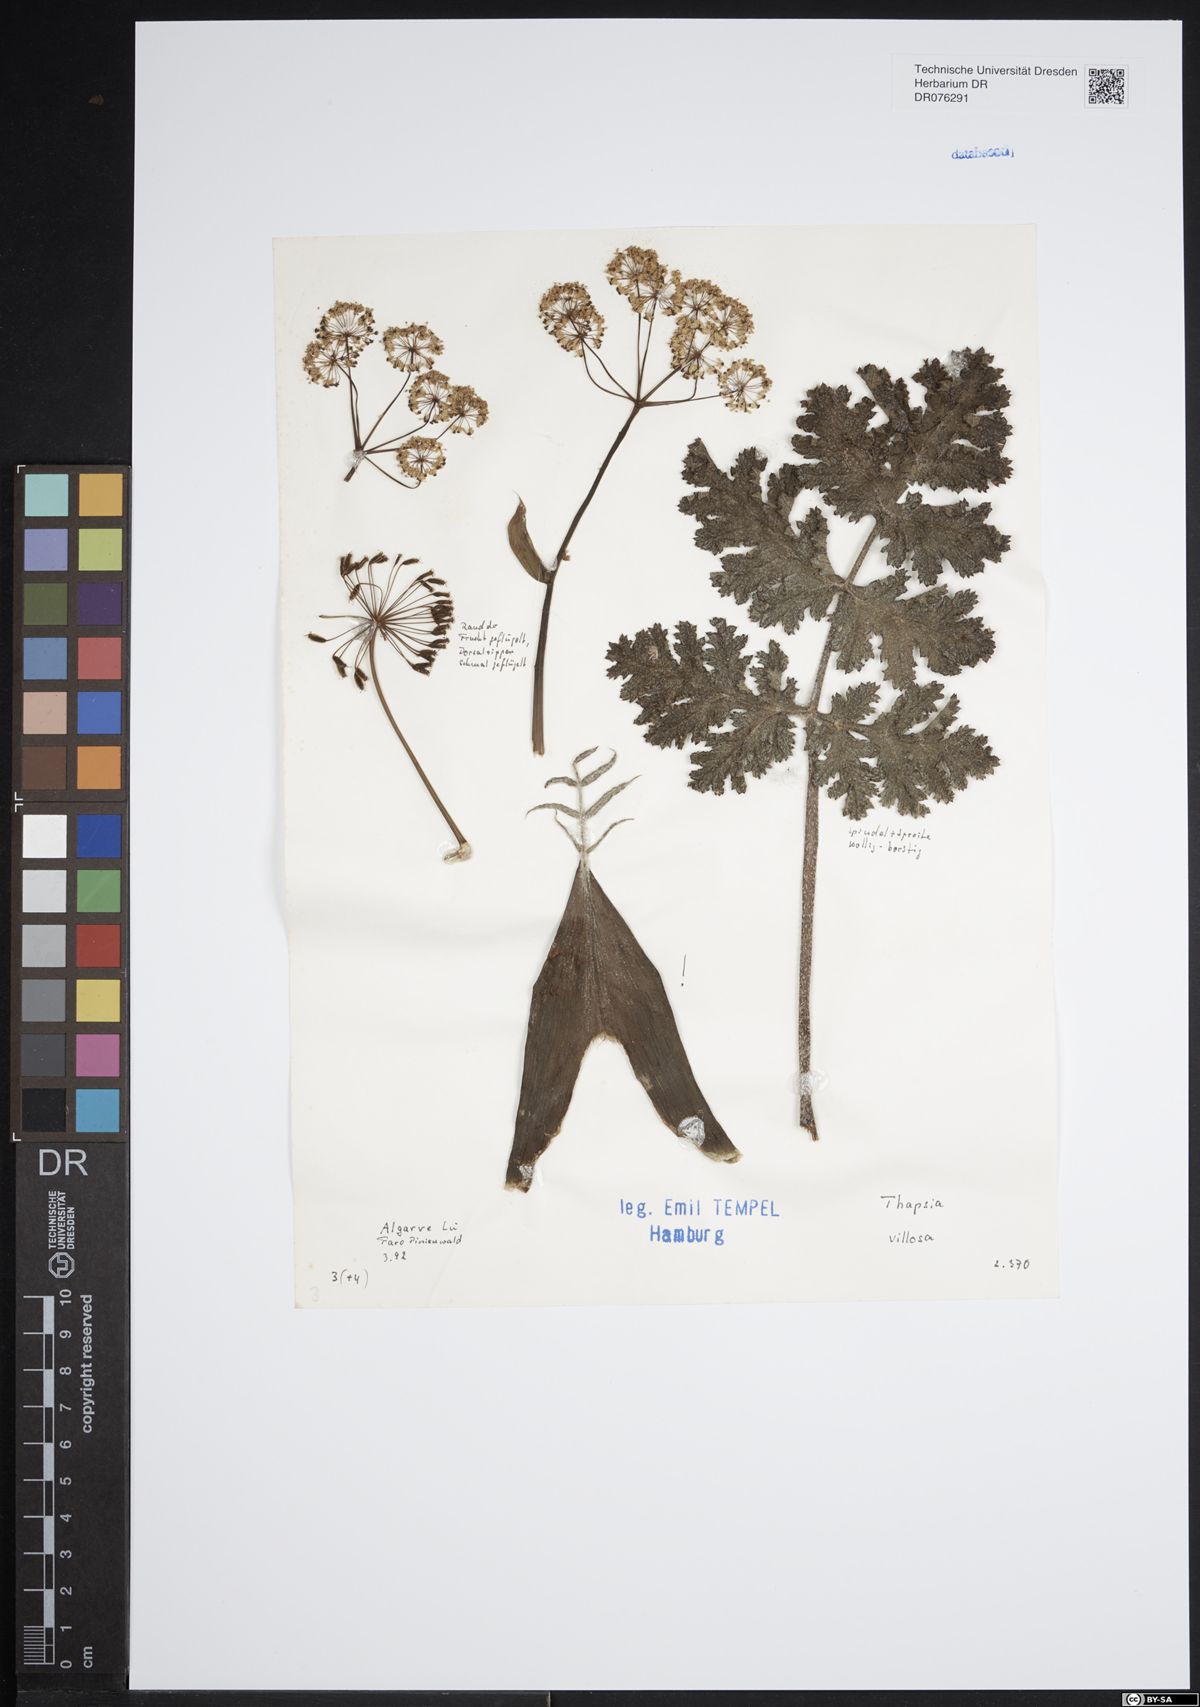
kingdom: Plantae
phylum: Tracheophyta
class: Magnoliopsida
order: Apiales
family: Apiaceae
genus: Thapsia
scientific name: Thapsia villosa
